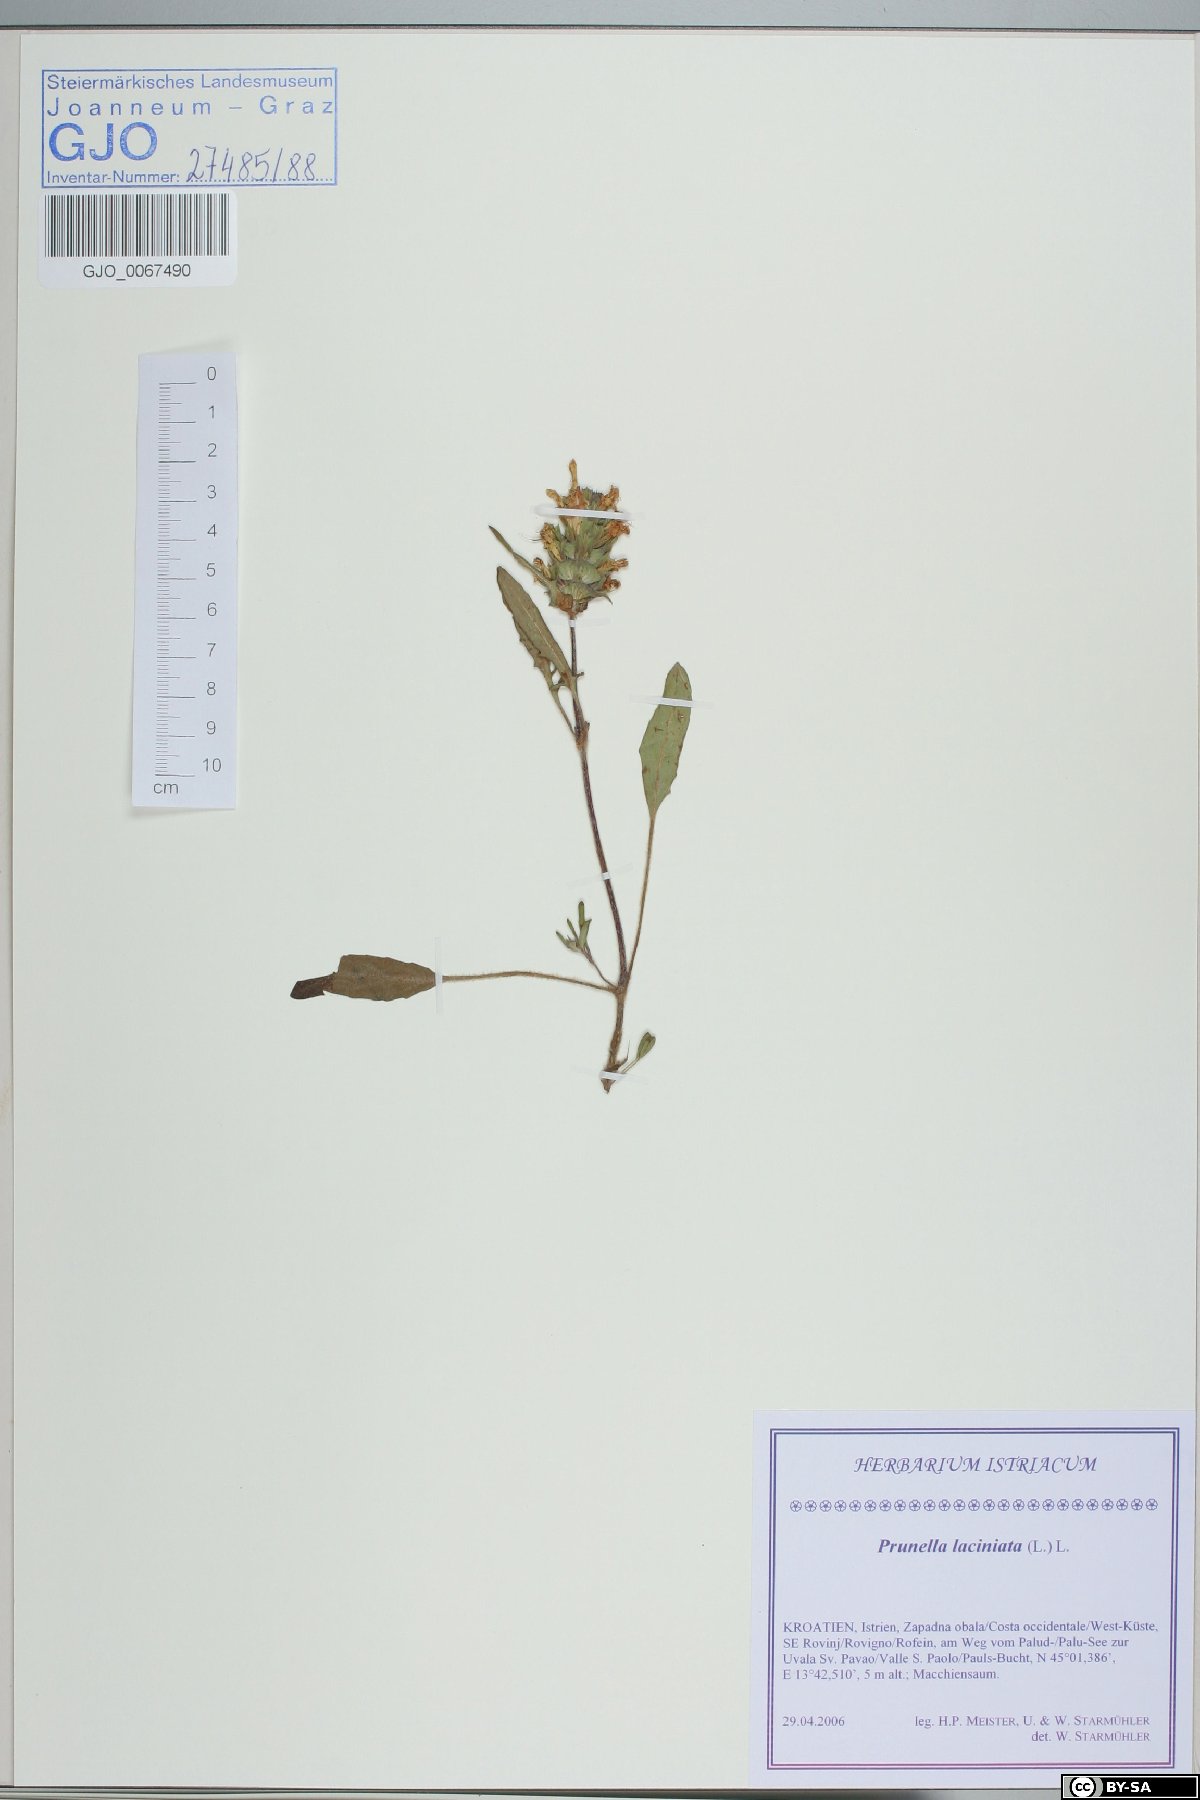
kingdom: Plantae
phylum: Tracheophyta
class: Magnoliopsida
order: Lamiales
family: Lamiaceae
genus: Prunella
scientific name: Prunella laciniata
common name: Cut-leaved selfheal
